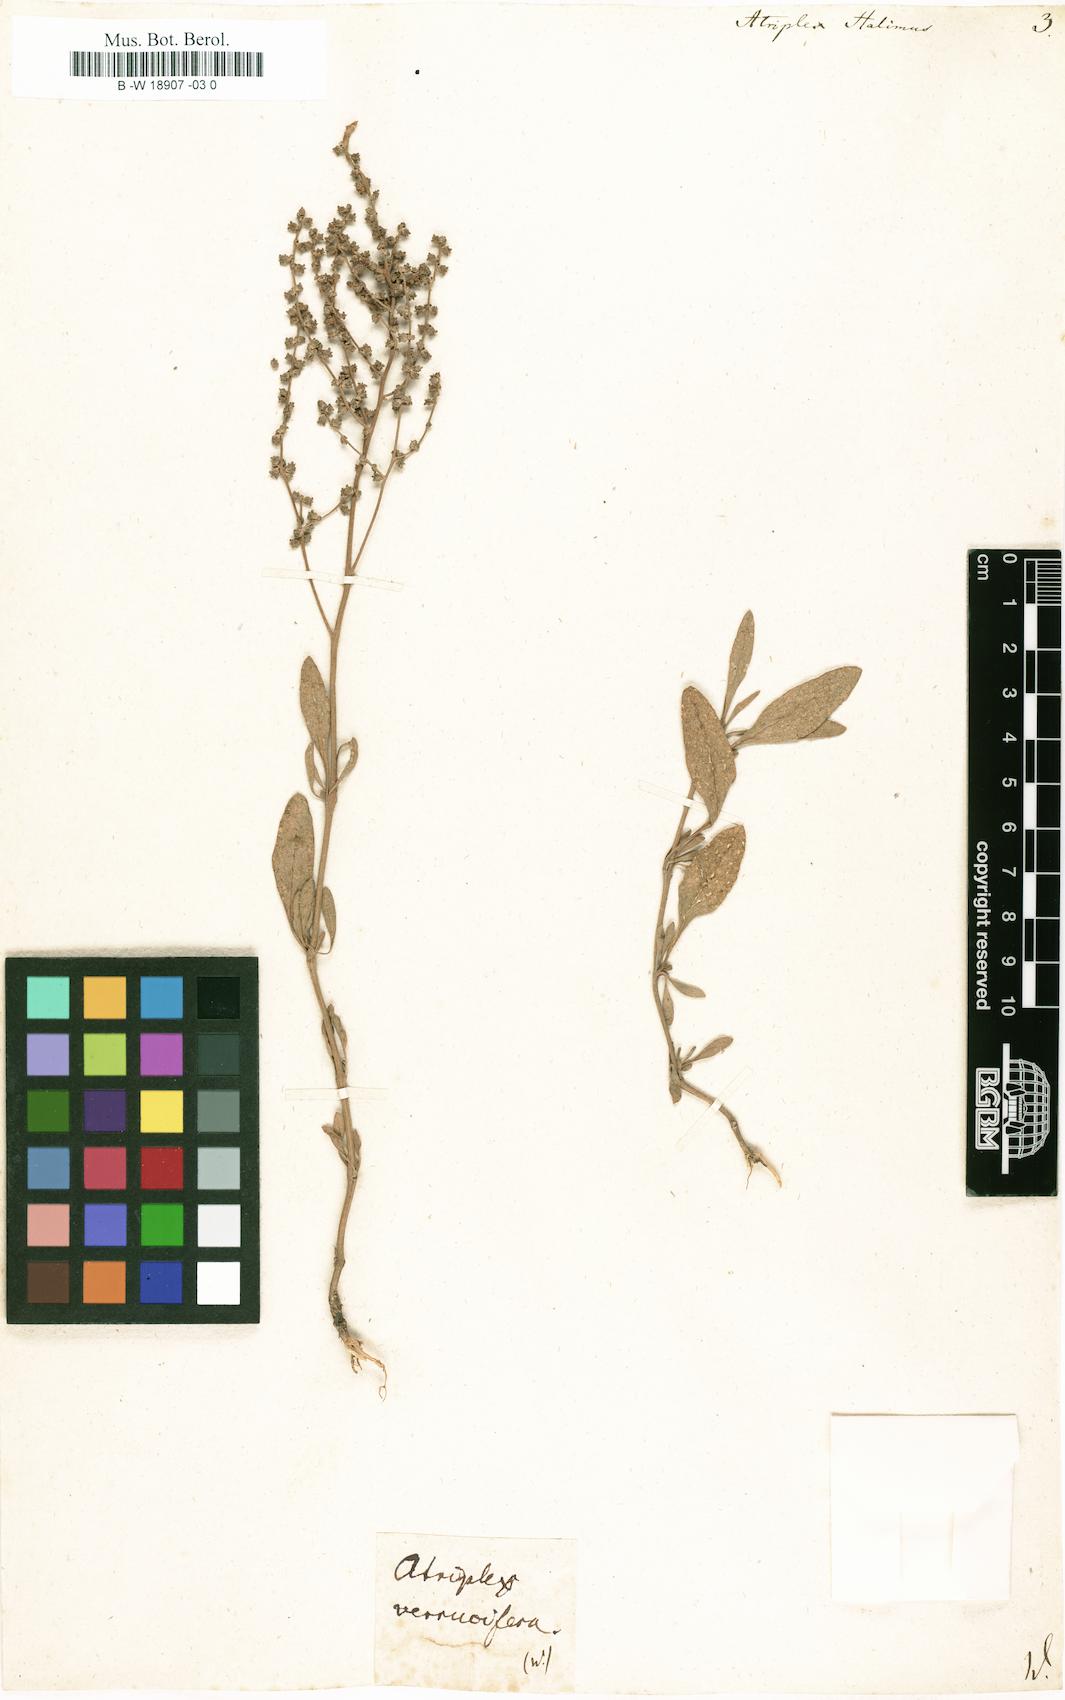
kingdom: Plantae
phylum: Tracheophyta
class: Magnoliopsida
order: Caryophyllales
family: Amaranthaceae
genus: Atriplex
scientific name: Atriplex halimus
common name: Shrubby orache
